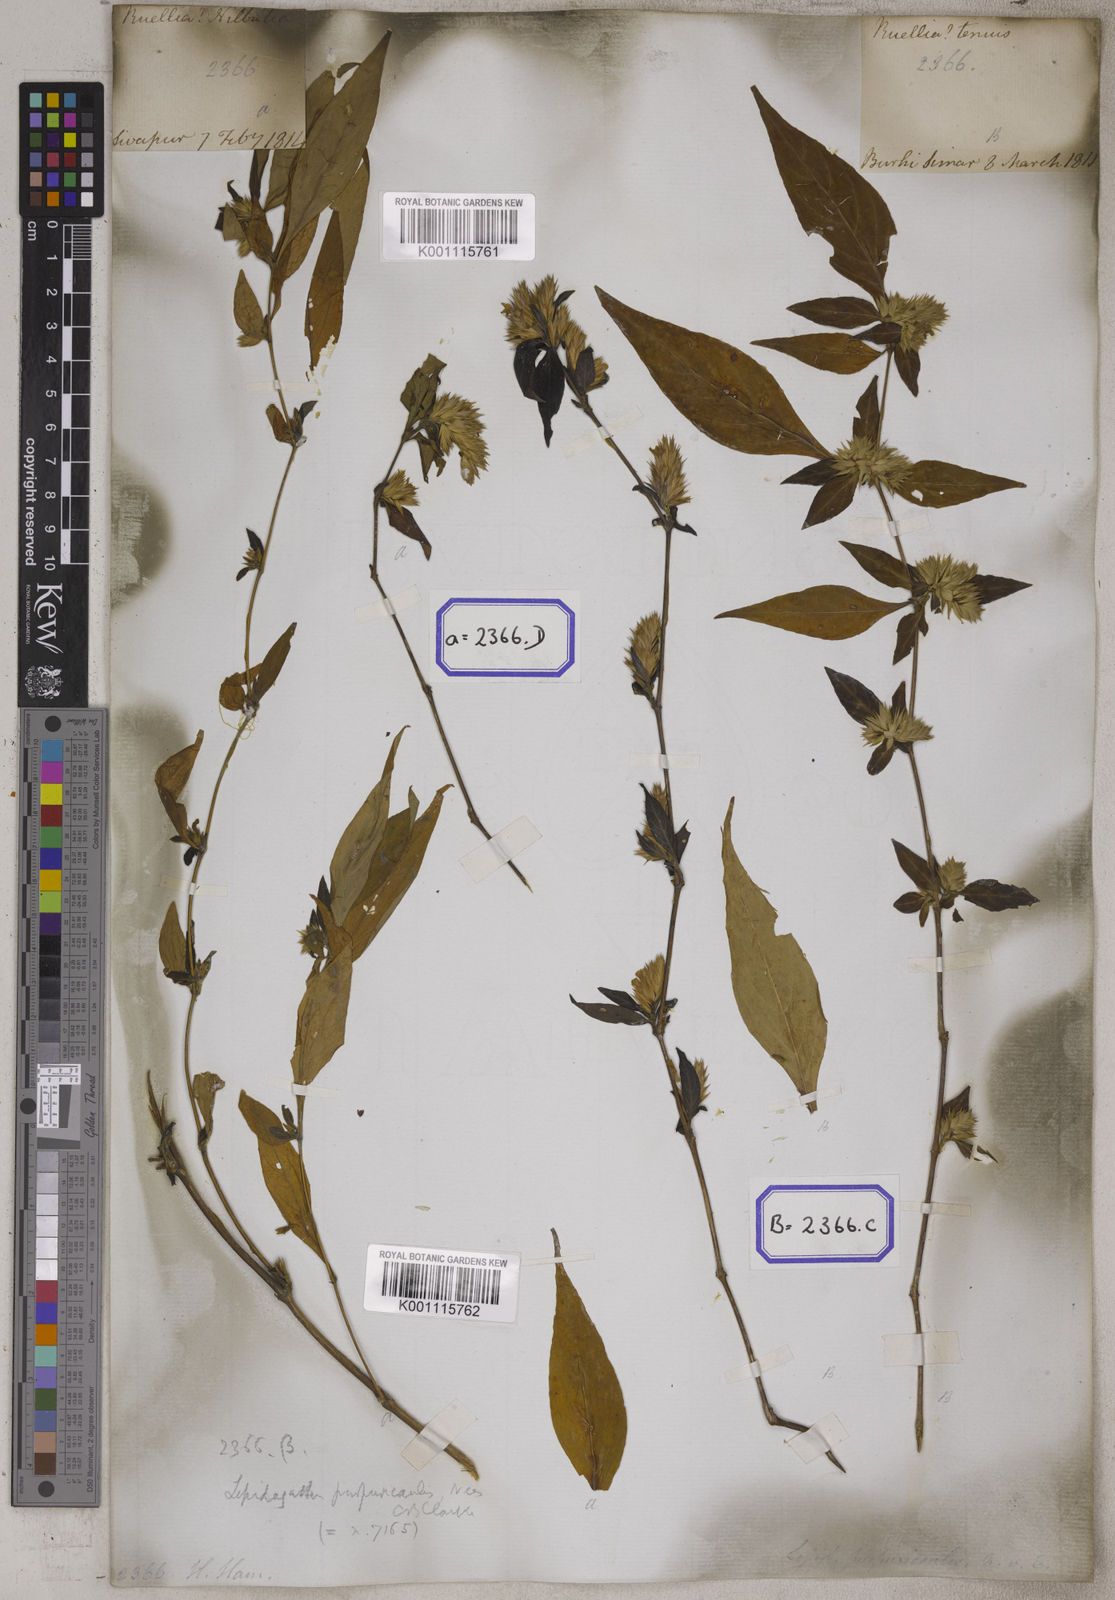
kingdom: Plantae
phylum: Tracheophyta
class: Magnoliopsida
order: Lamiales
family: Acanthaceae
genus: Lepidagathis
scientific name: Lepidagathis purpuricaulis
